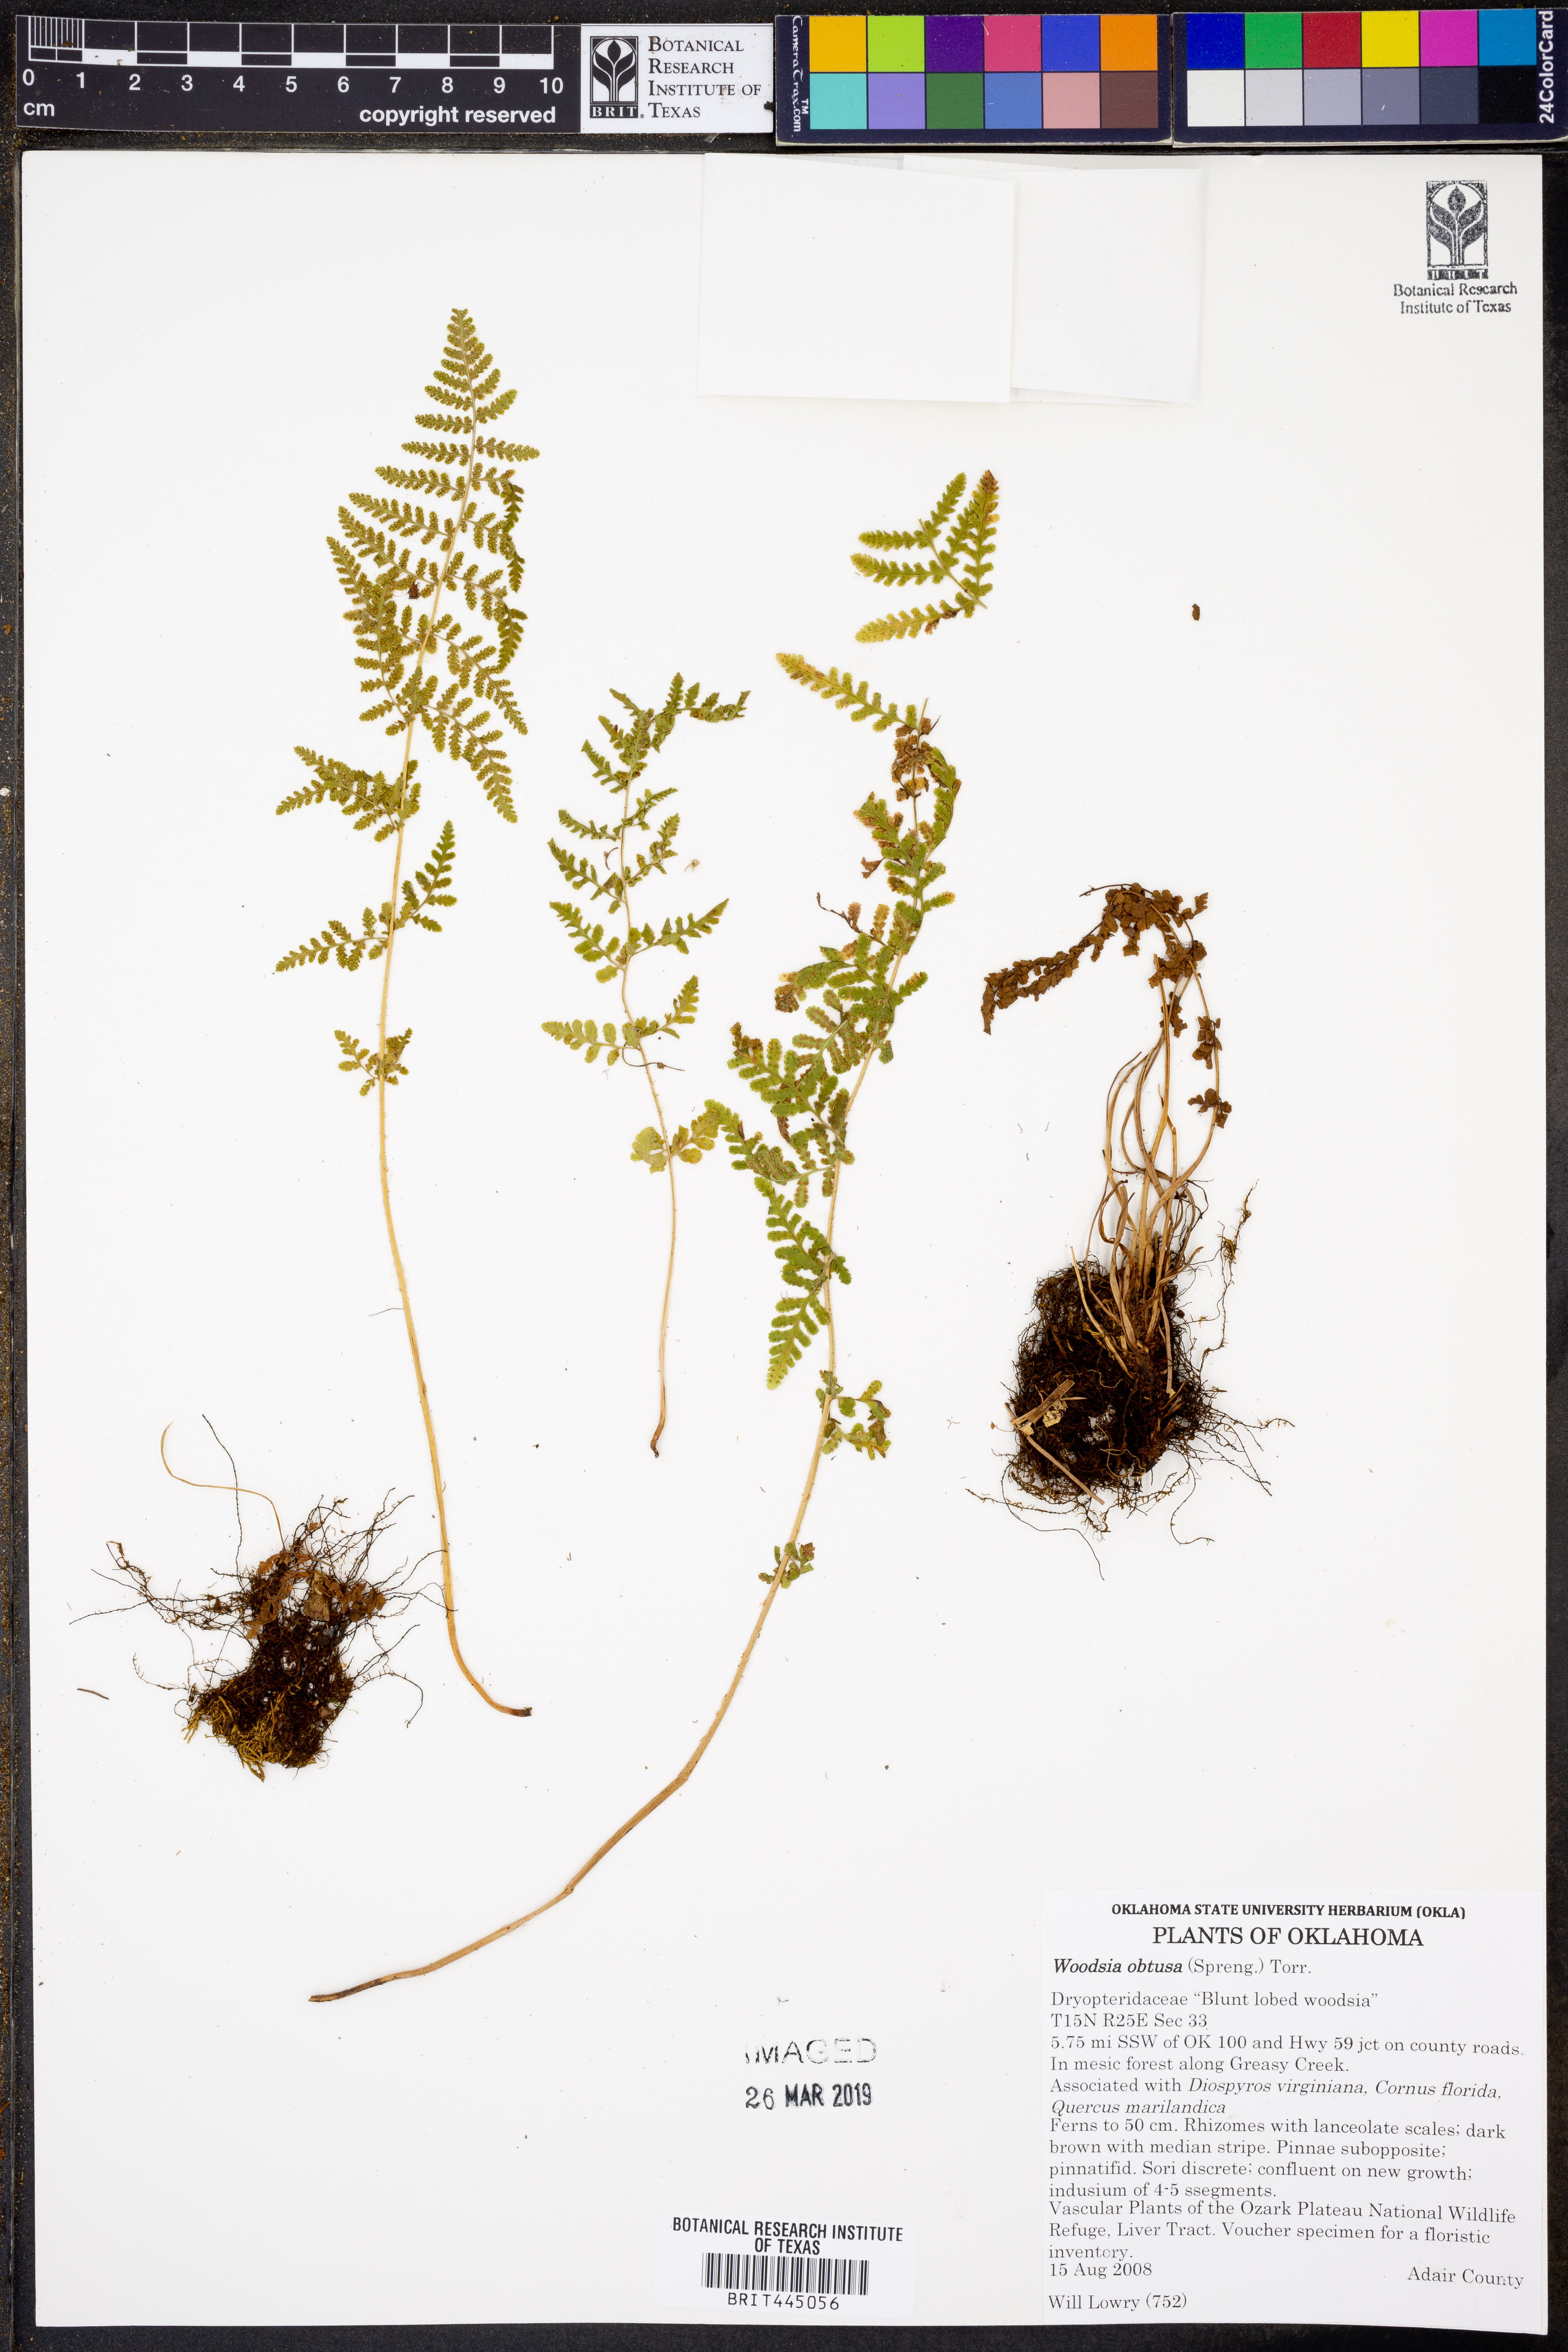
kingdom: Plantae
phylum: Tracheophyta
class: Polypodiopsida
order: Polypodiales
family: Woodsiaceae
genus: Physematium
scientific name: Physematium obtusum
